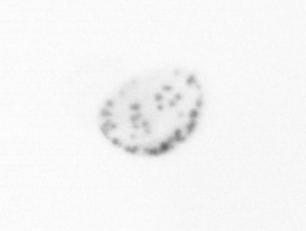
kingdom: Chromista
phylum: Ochrophyta
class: Bacillariophyceae
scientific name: Bacillariophyceae
